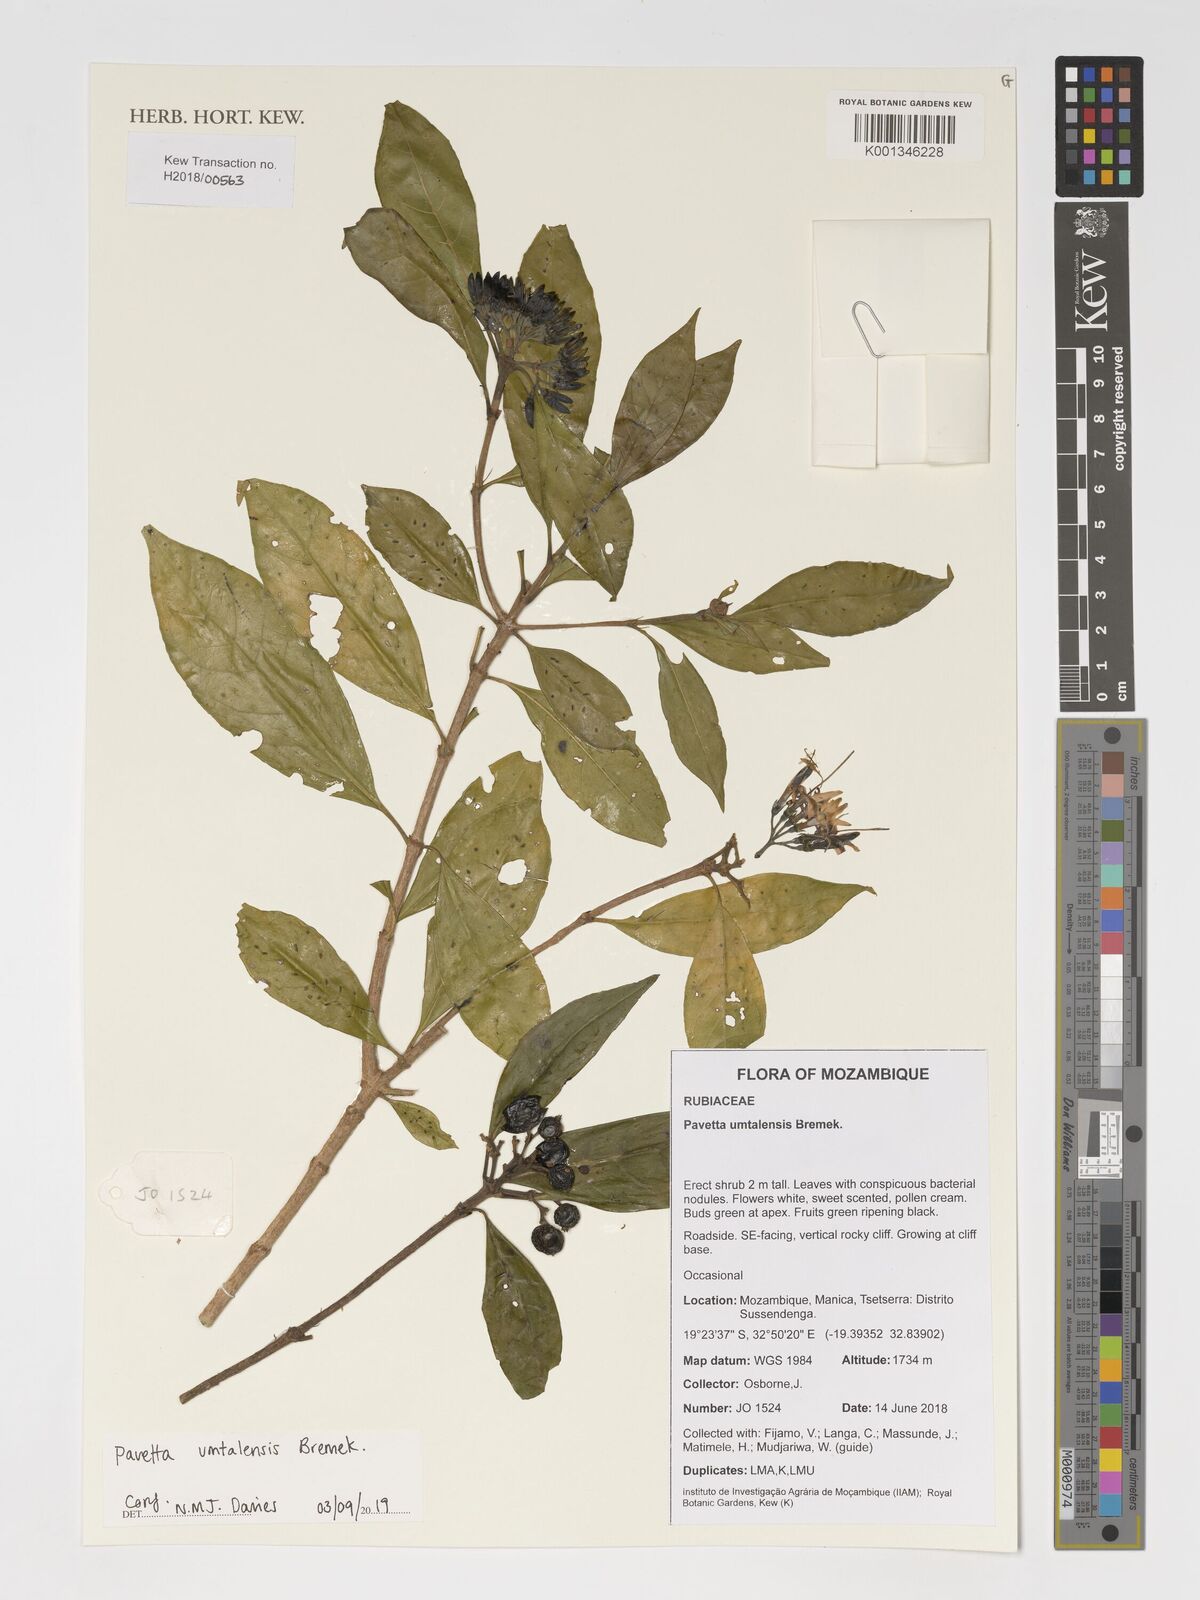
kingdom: Plantae
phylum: Tracheophyta
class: Magnoliopsida
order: Gentianales
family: Rubiaceae
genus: Pavetta
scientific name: Pavetta umtalensis
